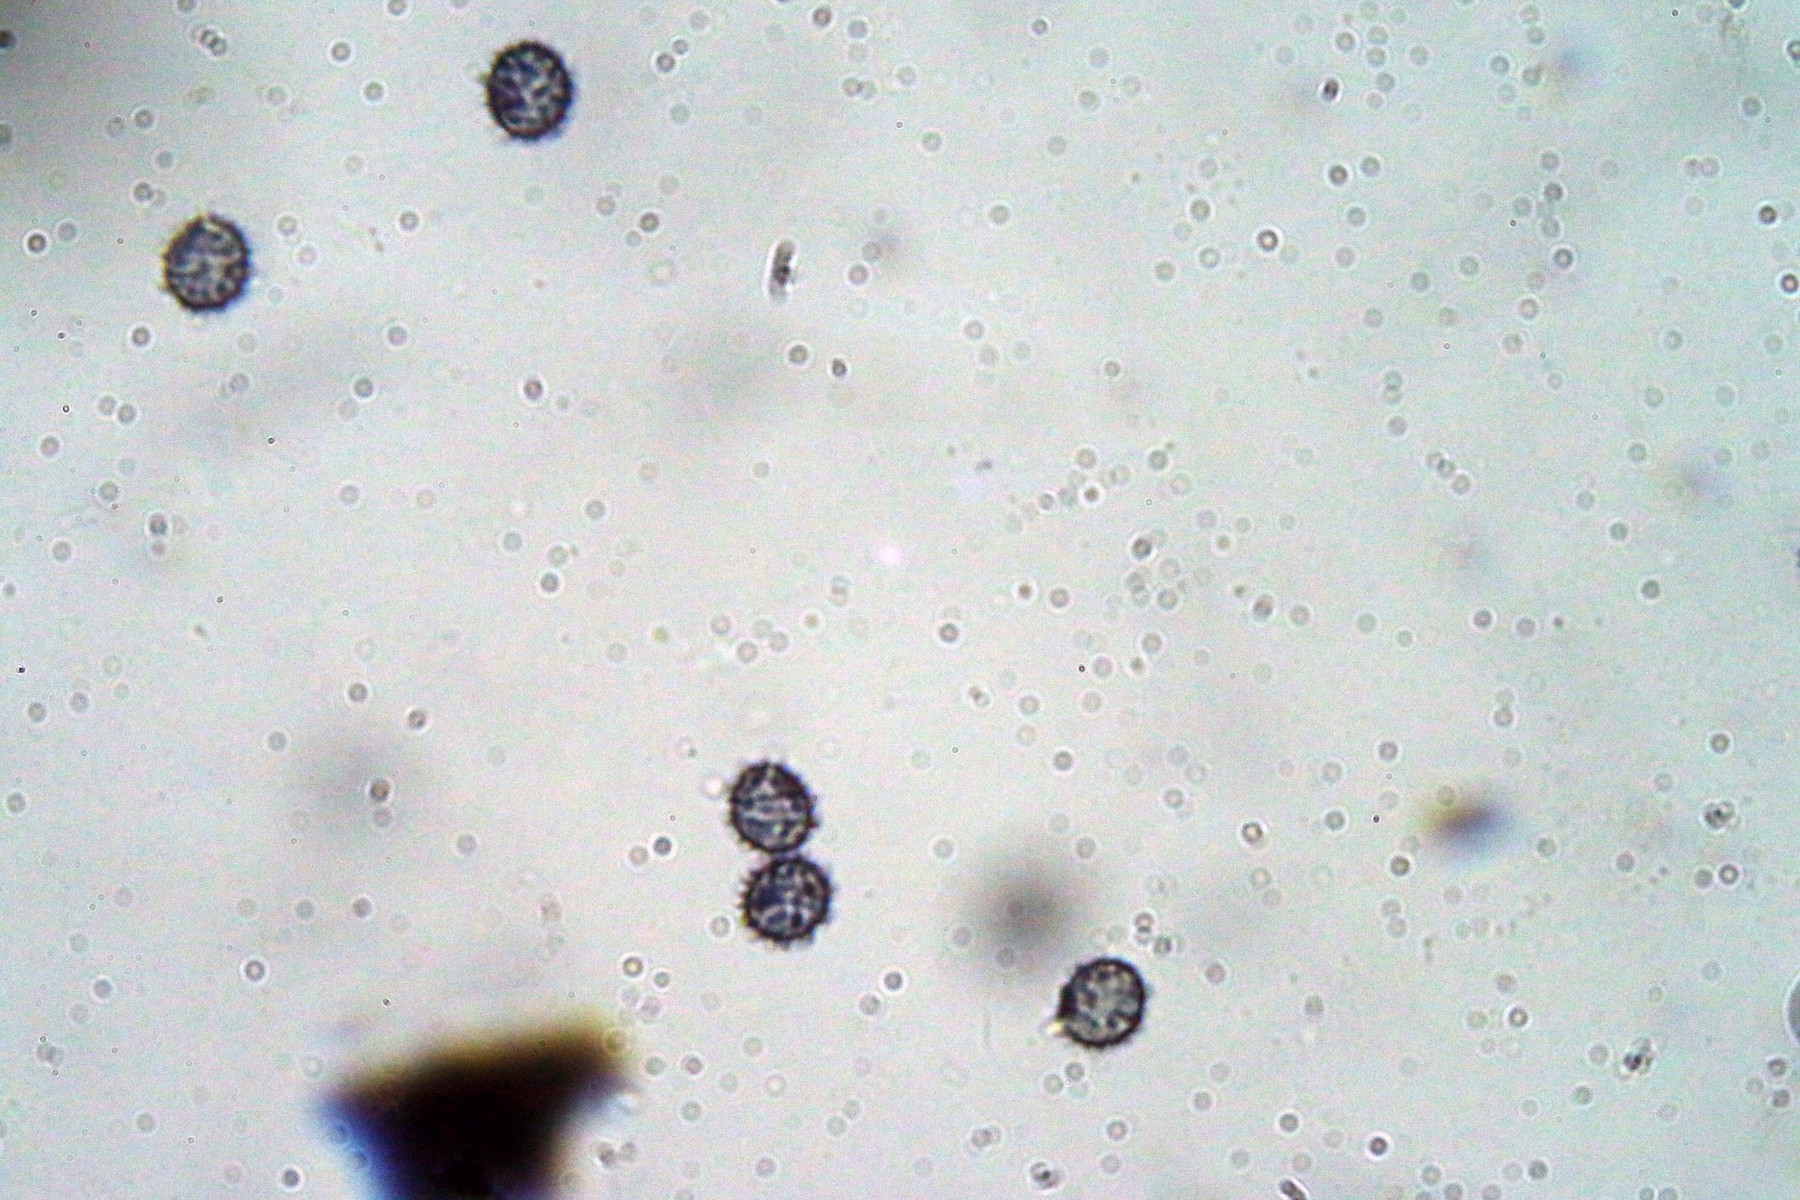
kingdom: Fungi
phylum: Basidiomycota
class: Agaricomycetes
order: Russulales
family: Russulaceae
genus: Russula
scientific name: Russula
